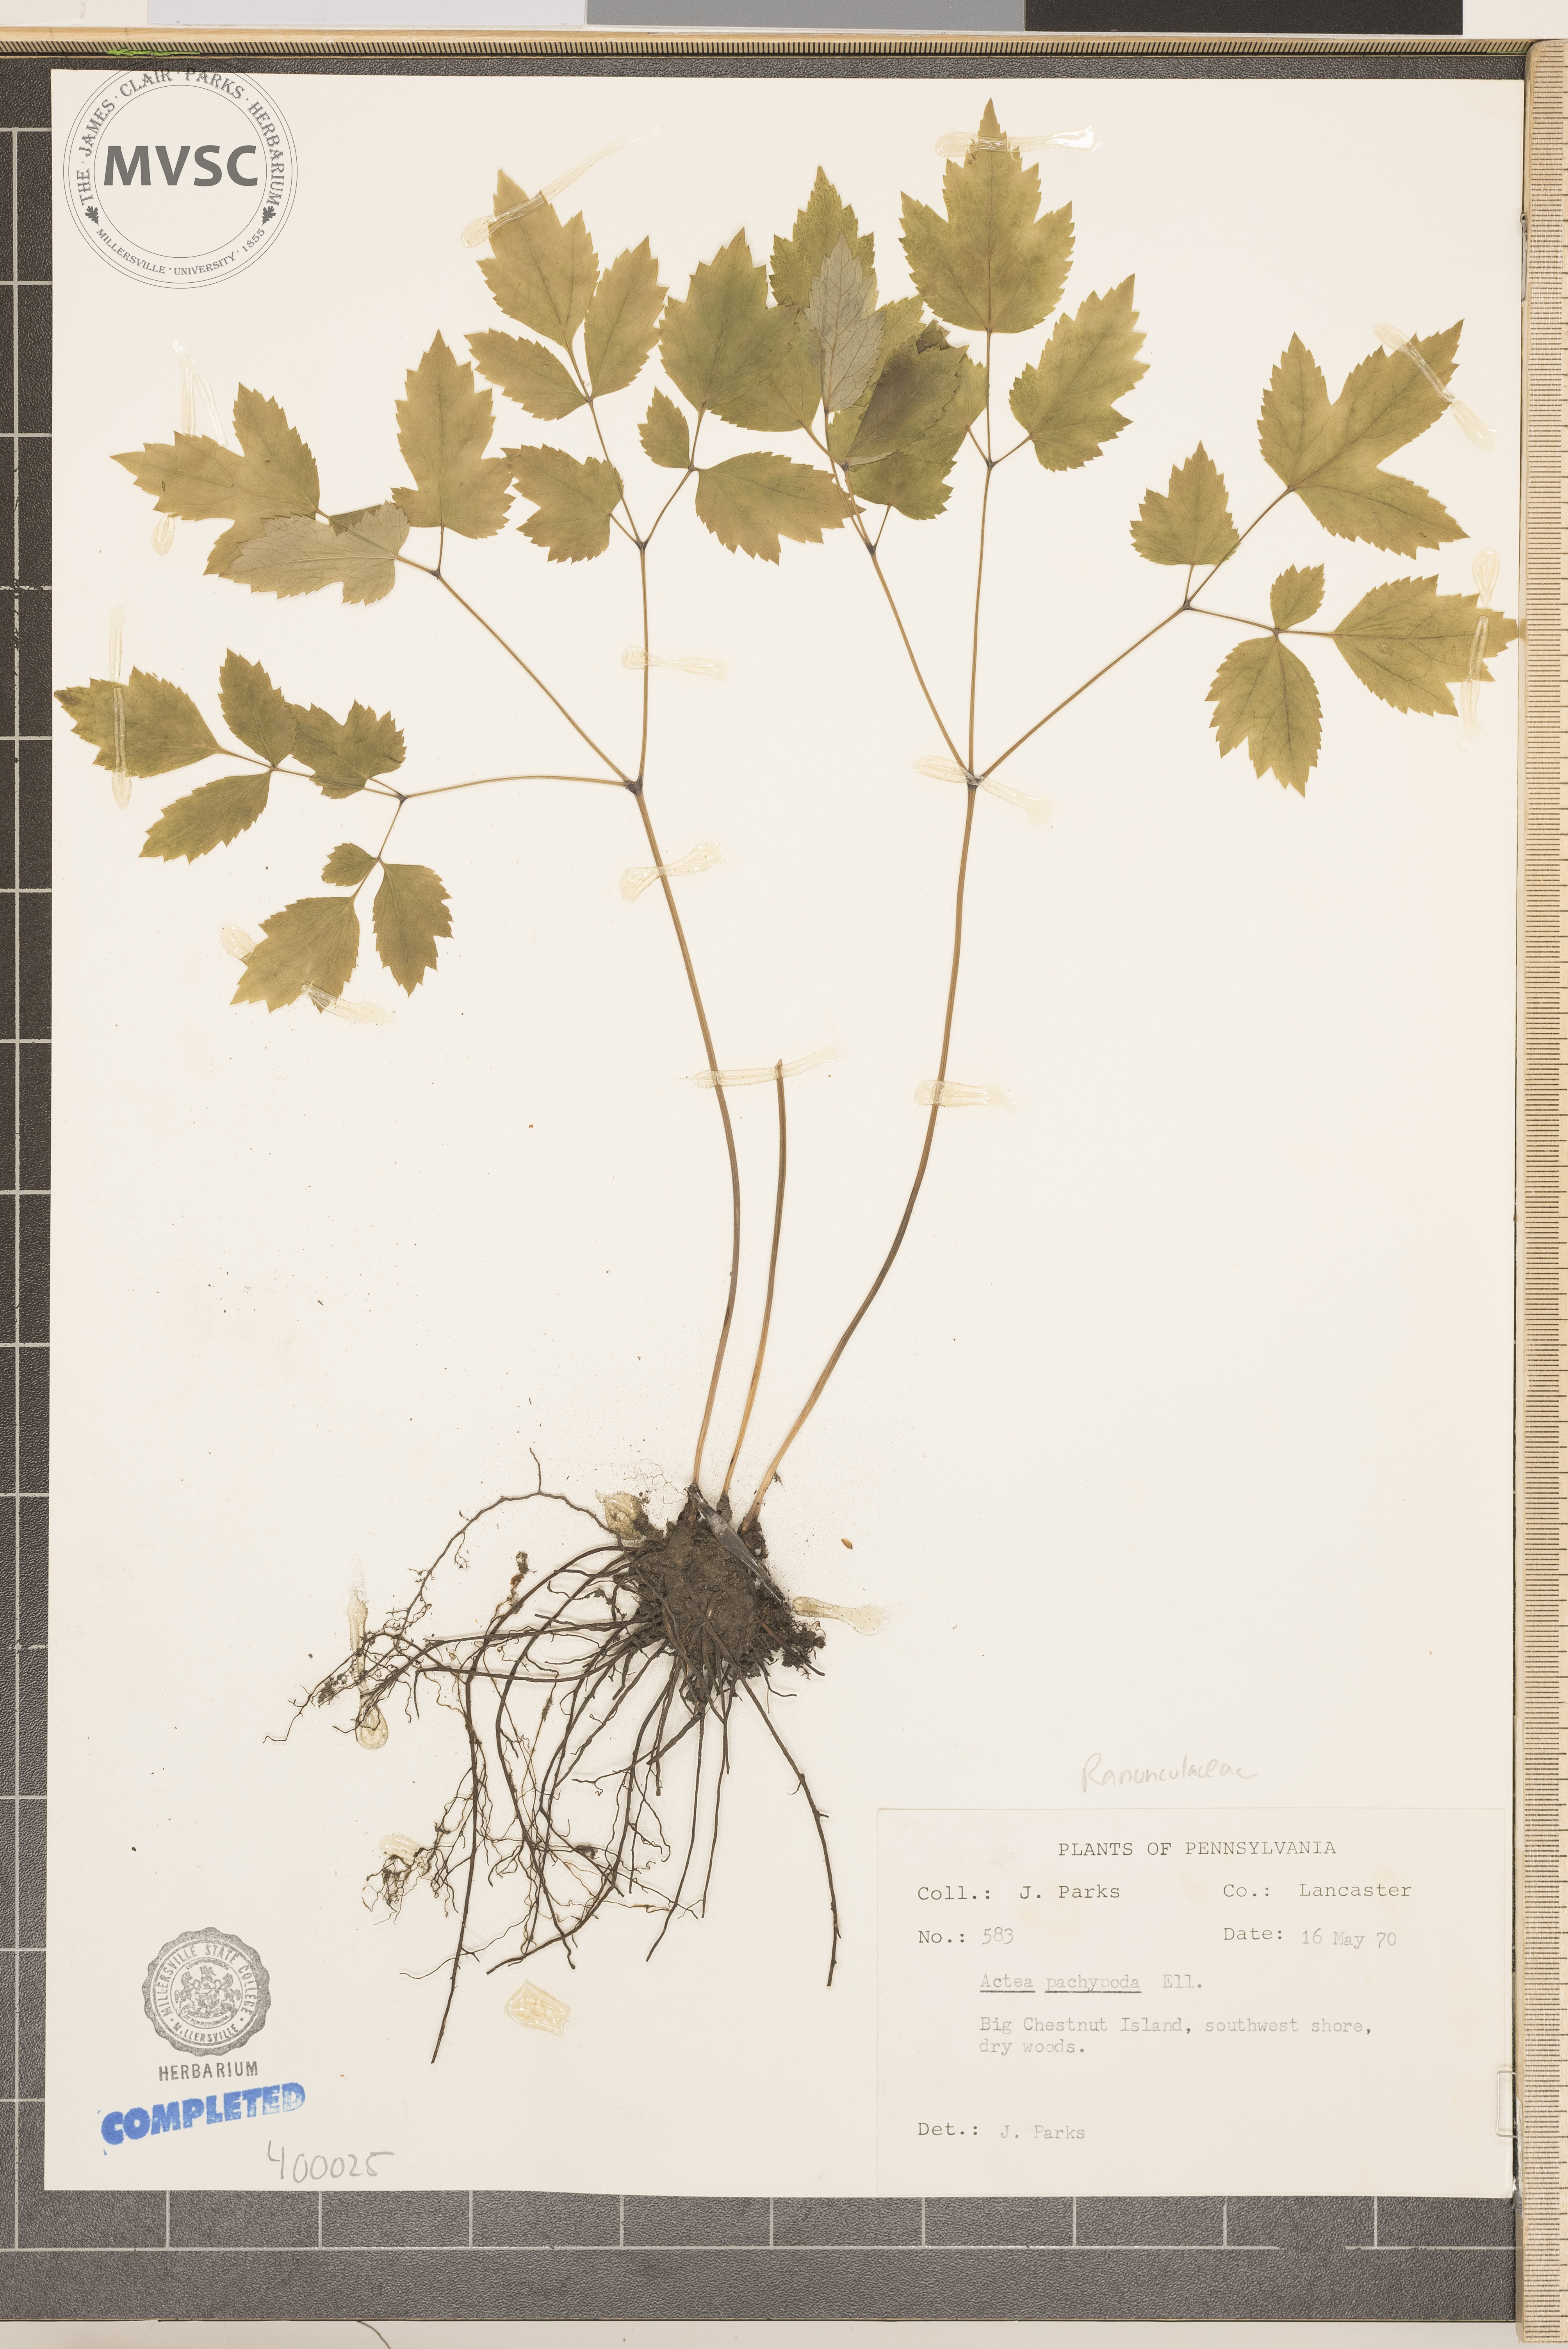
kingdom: Plantae
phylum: Tracheophyta
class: Magnoliopsida
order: Ranunculales
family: Ranunculaceae
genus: Actaea
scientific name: Actaea pachypoda
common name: Doll's-eyes
